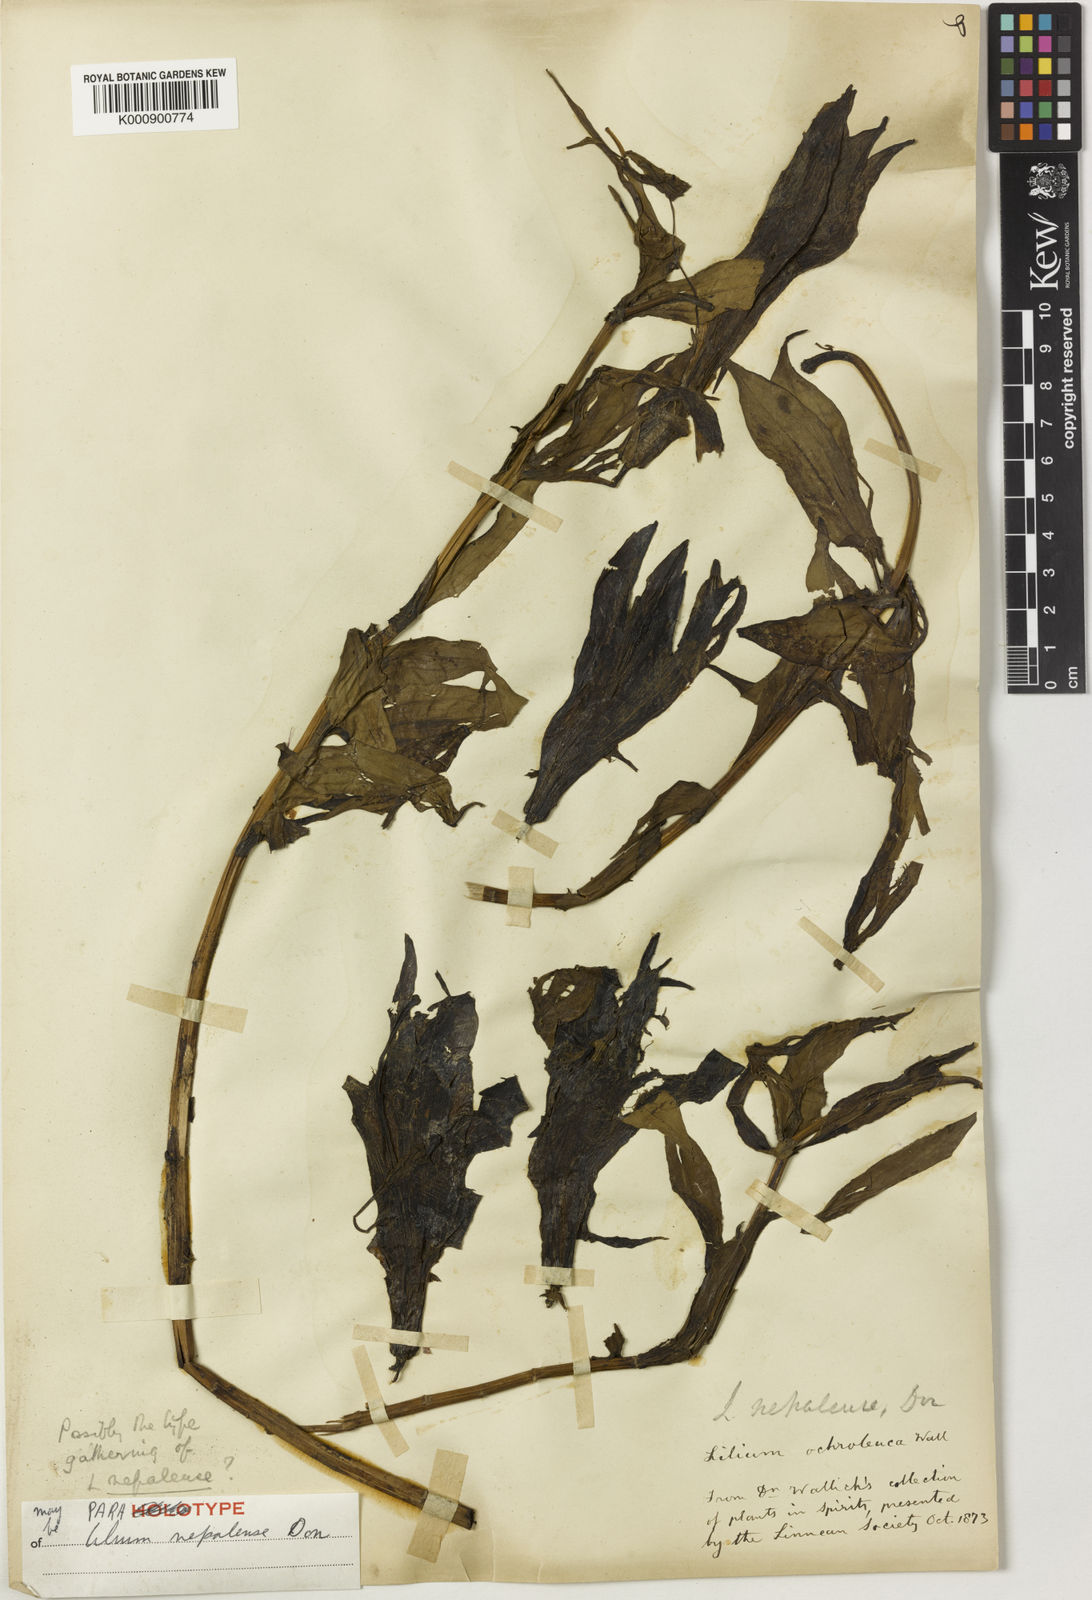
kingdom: Plantae
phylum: Tracheophyta
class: Liliopsida
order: Liliales
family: Liliaceae
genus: Lilium
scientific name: Lilium nepalense
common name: Nepal lily
